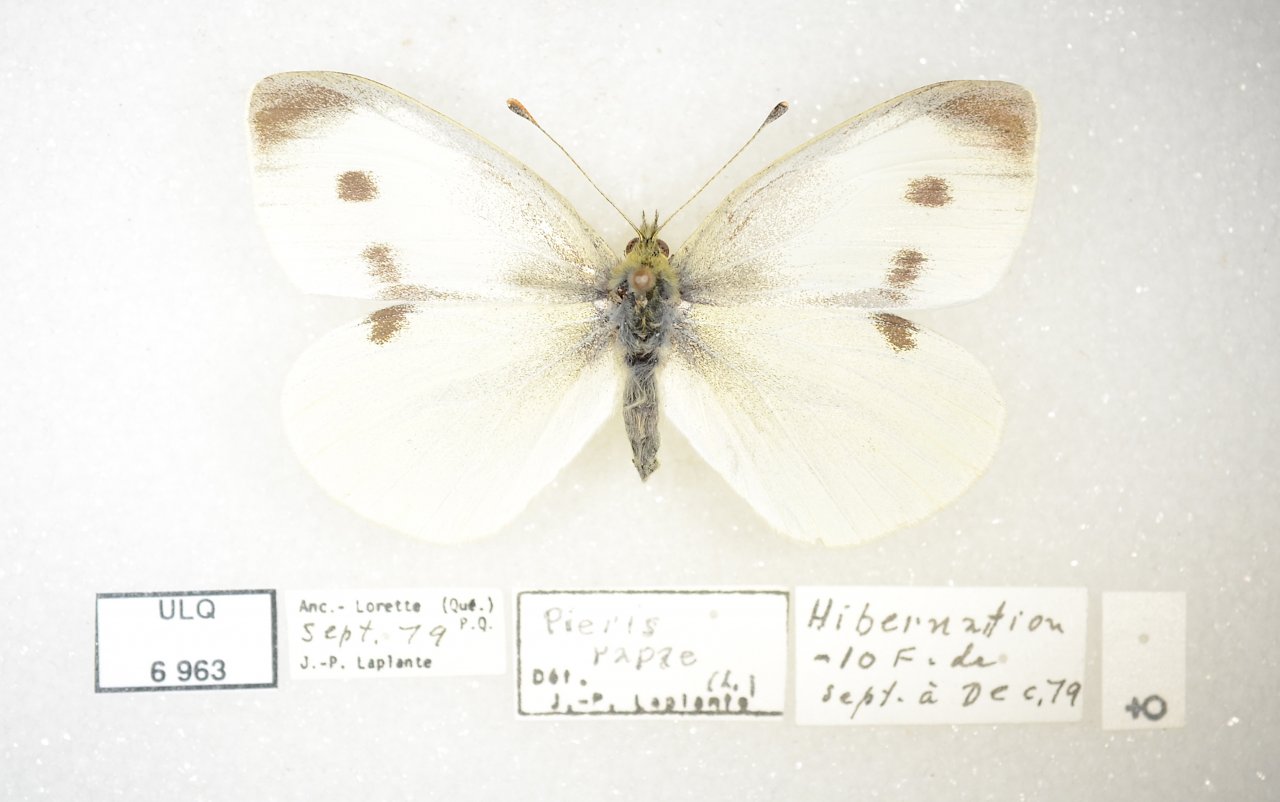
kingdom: Animalia
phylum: Arthropoda
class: Insecta
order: Lepidoptera
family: Pieridae
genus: Pieris
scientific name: Pieris rapae
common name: Cabbage White
